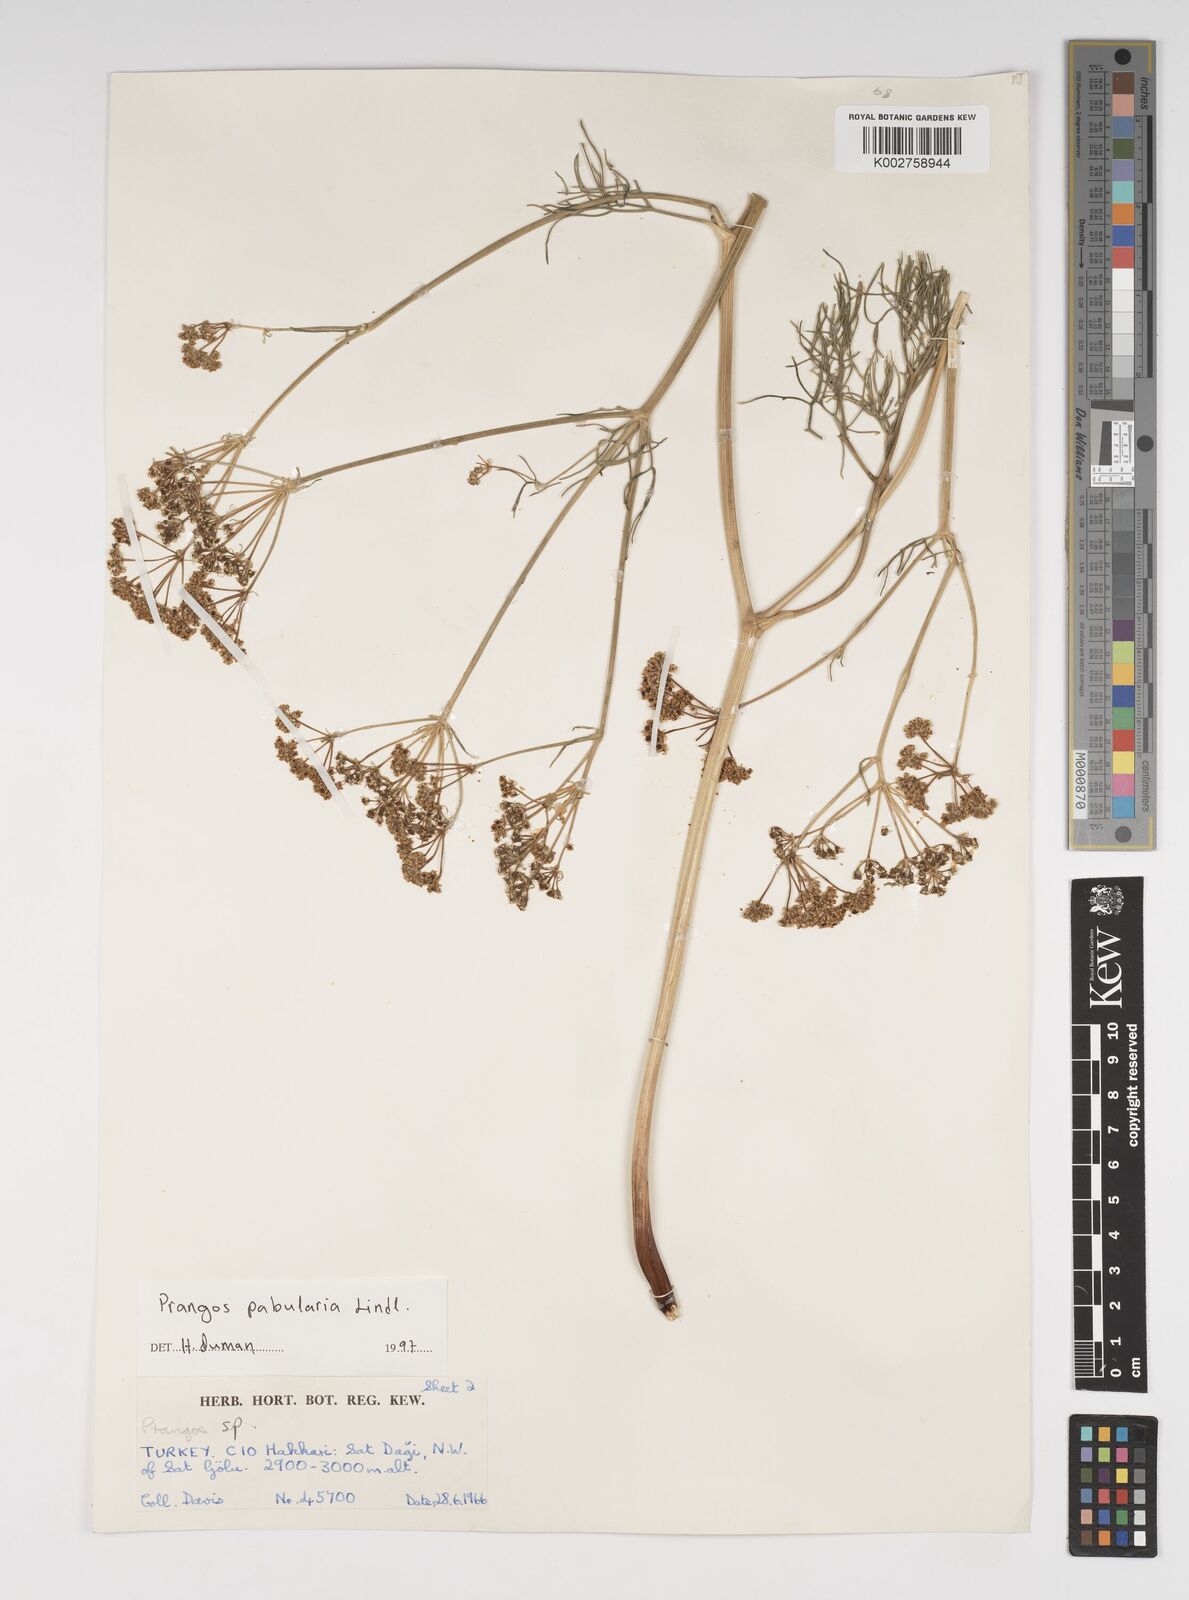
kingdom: Plantae
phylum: Tracheophyta
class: Magnoliopsida
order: Apiales
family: Apiaceae
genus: Prangos
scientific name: Prangos pabularia
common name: Yugan
